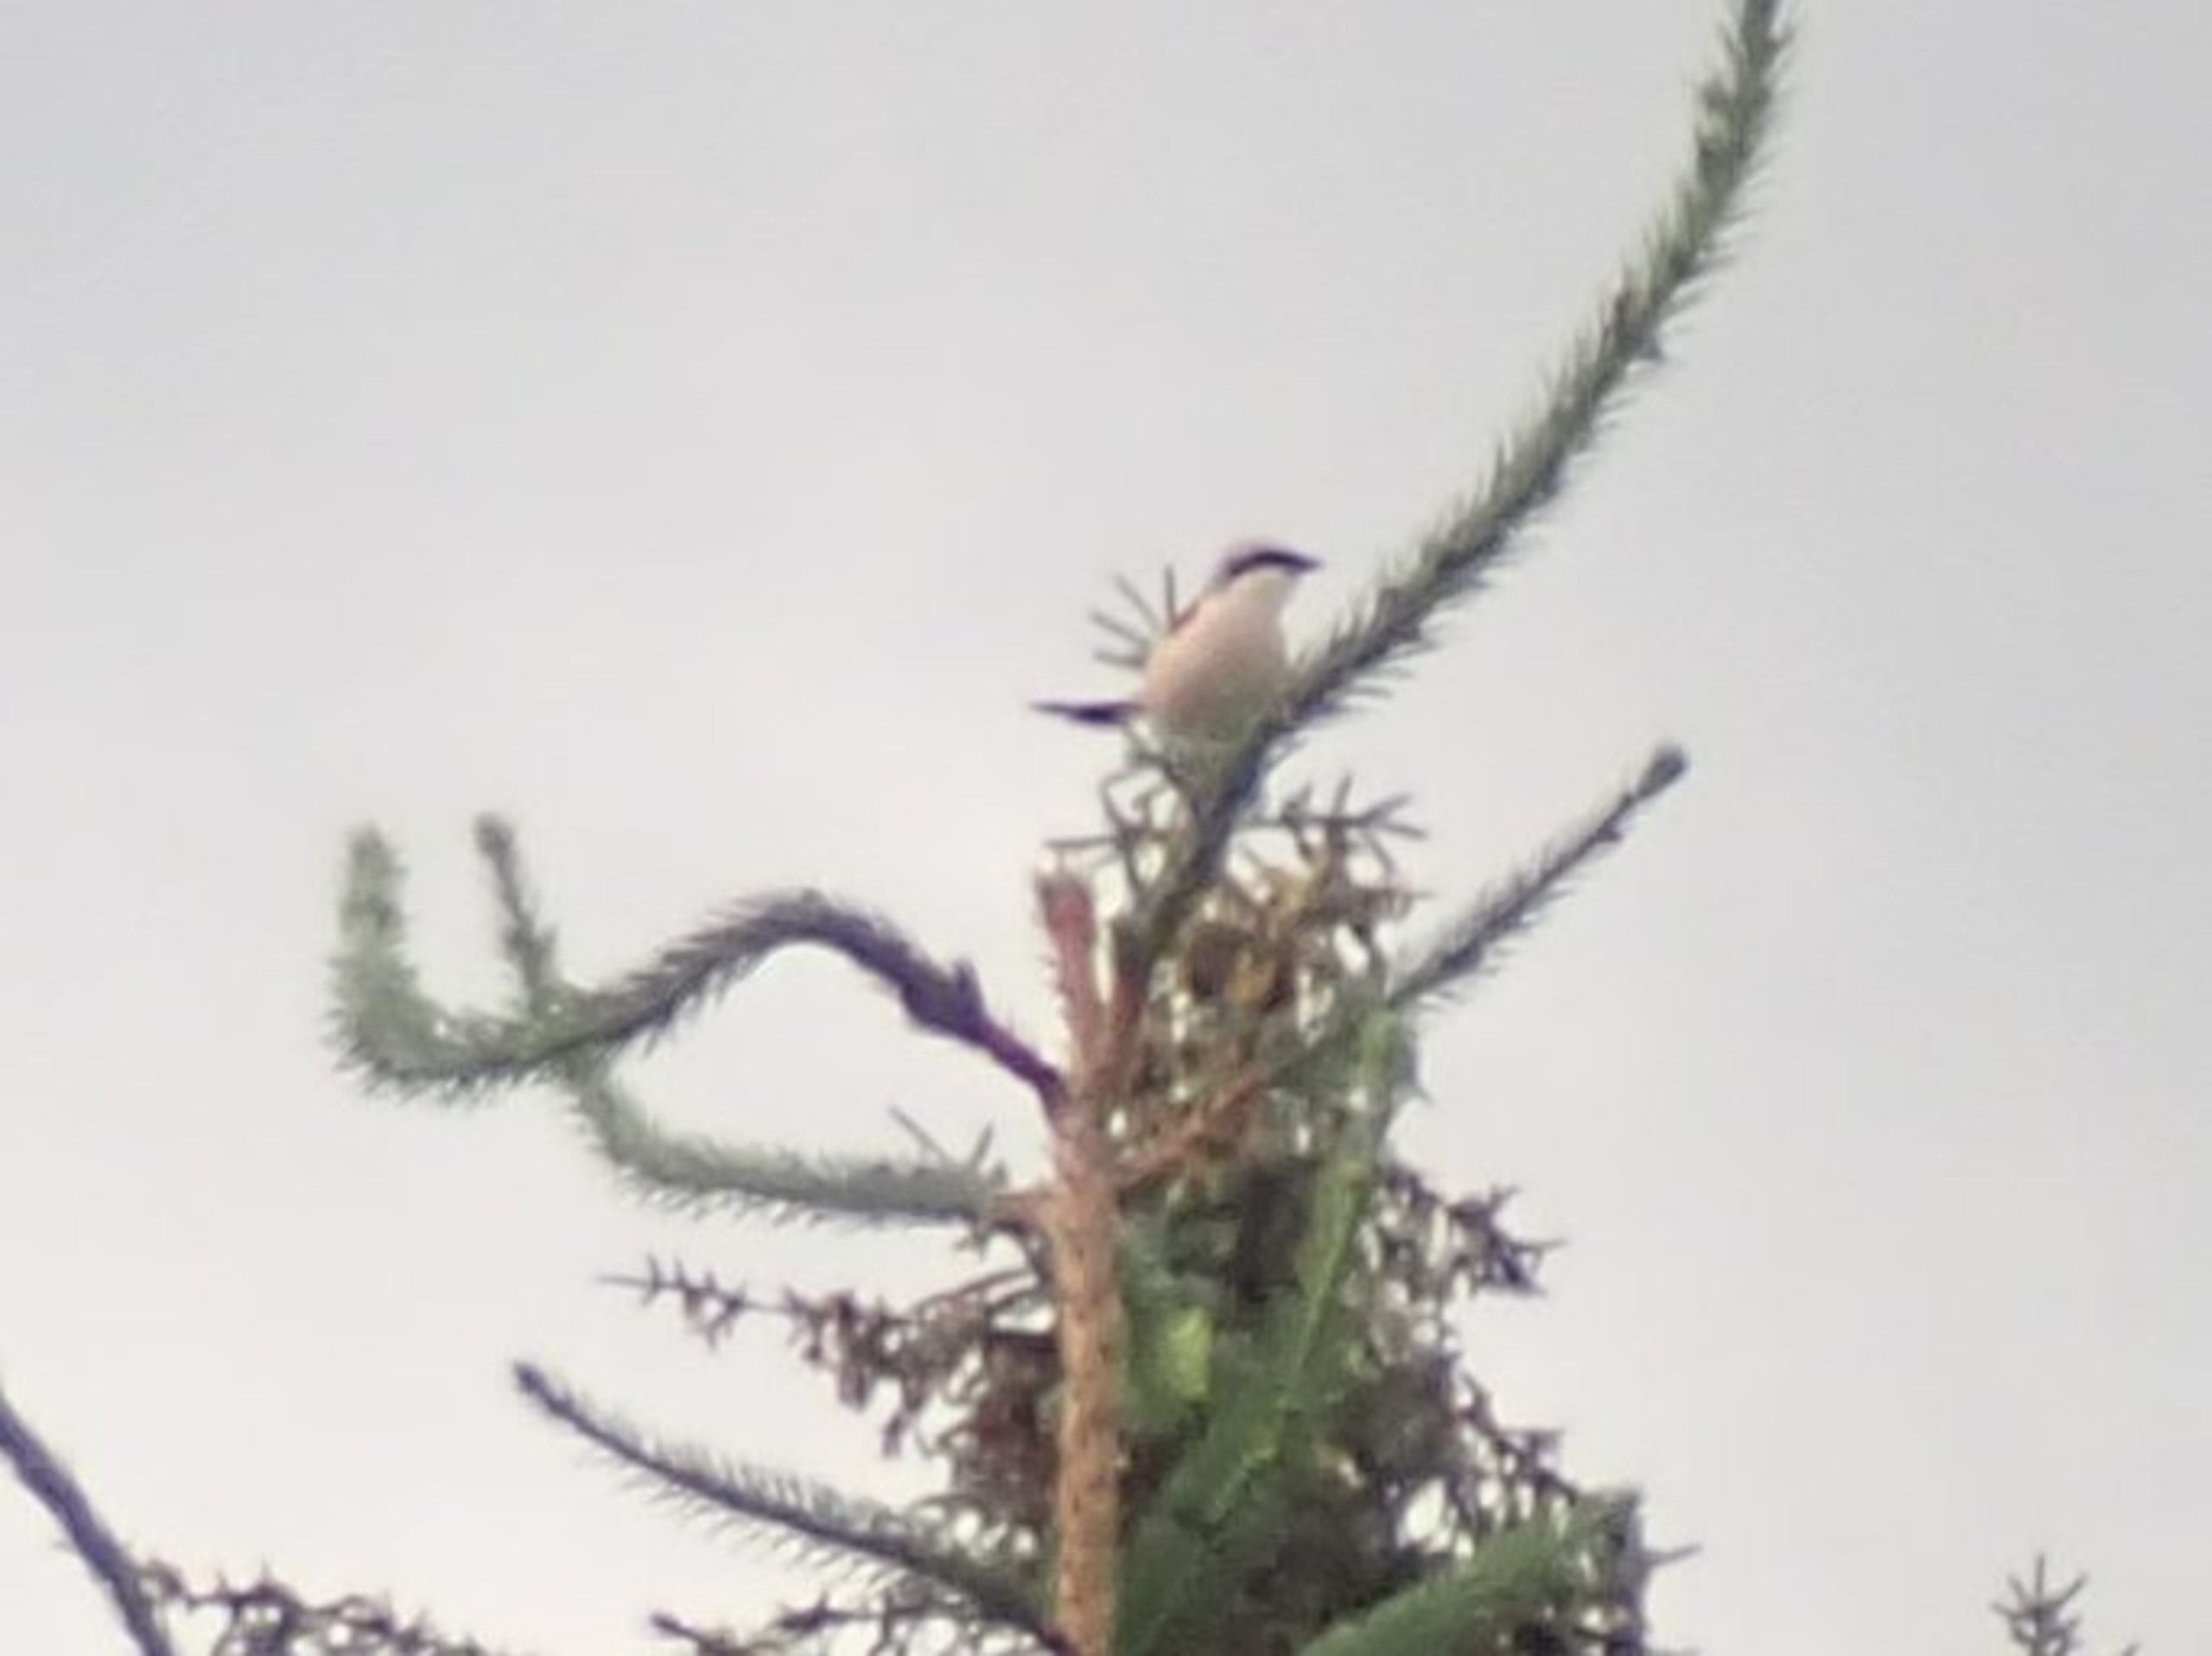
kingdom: Animalia
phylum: Chordata
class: Aves
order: Passeriformes
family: Laniidae
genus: Lanius
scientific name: Lanius collurio
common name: Rødrygget tornskade
